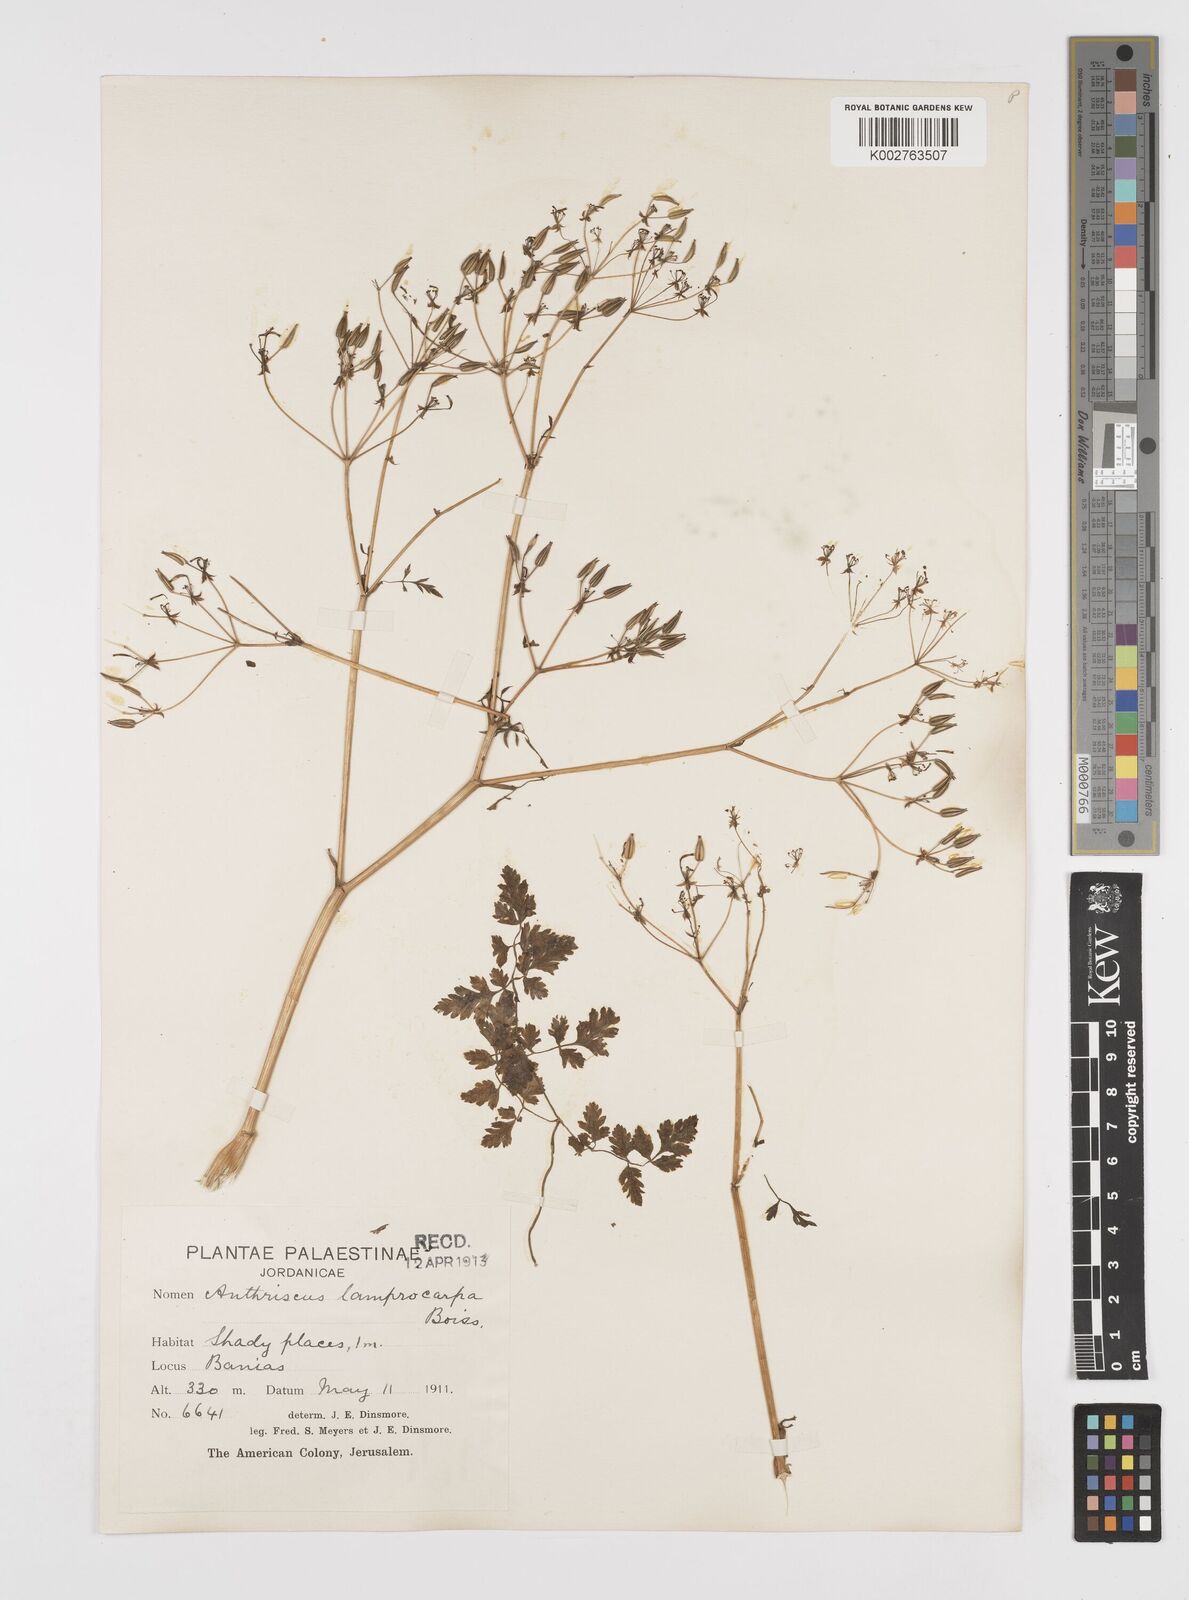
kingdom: Plantae
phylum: Tracheophyta
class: Magnoliopsida
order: Apiales
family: Apiaceae
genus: Anthriscus
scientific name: Anthriscus lamprocarpa
